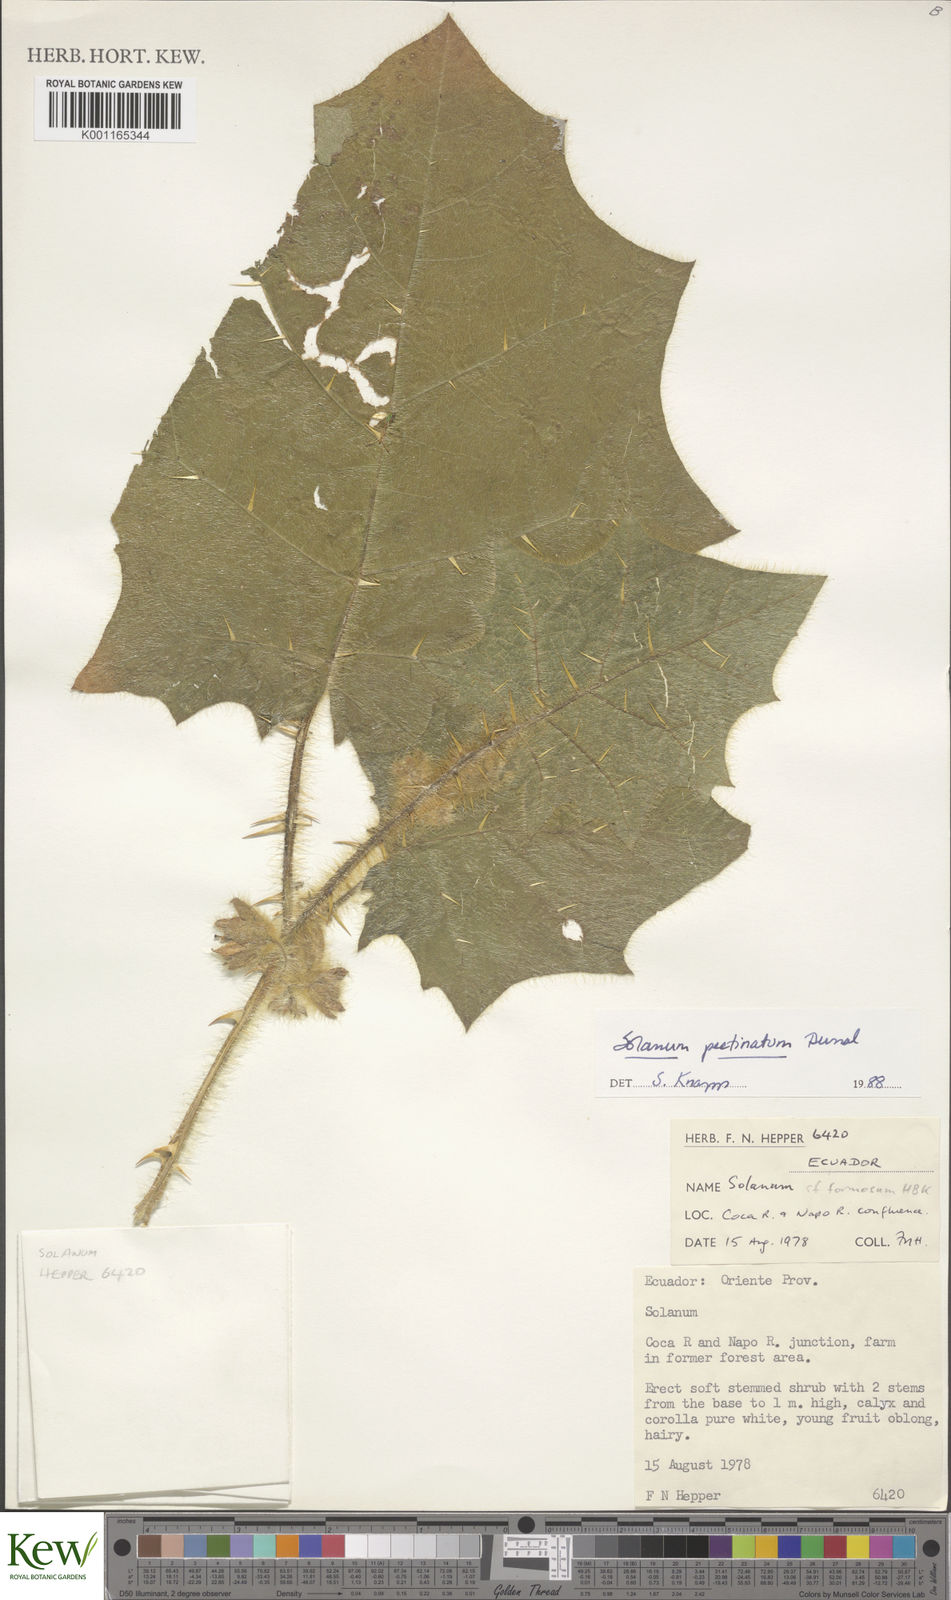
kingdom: Plantae
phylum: Tracheophyta
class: Magnoliopsida
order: Solanales
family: Solanaceae
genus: Solanum
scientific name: Solanum pectinatum
